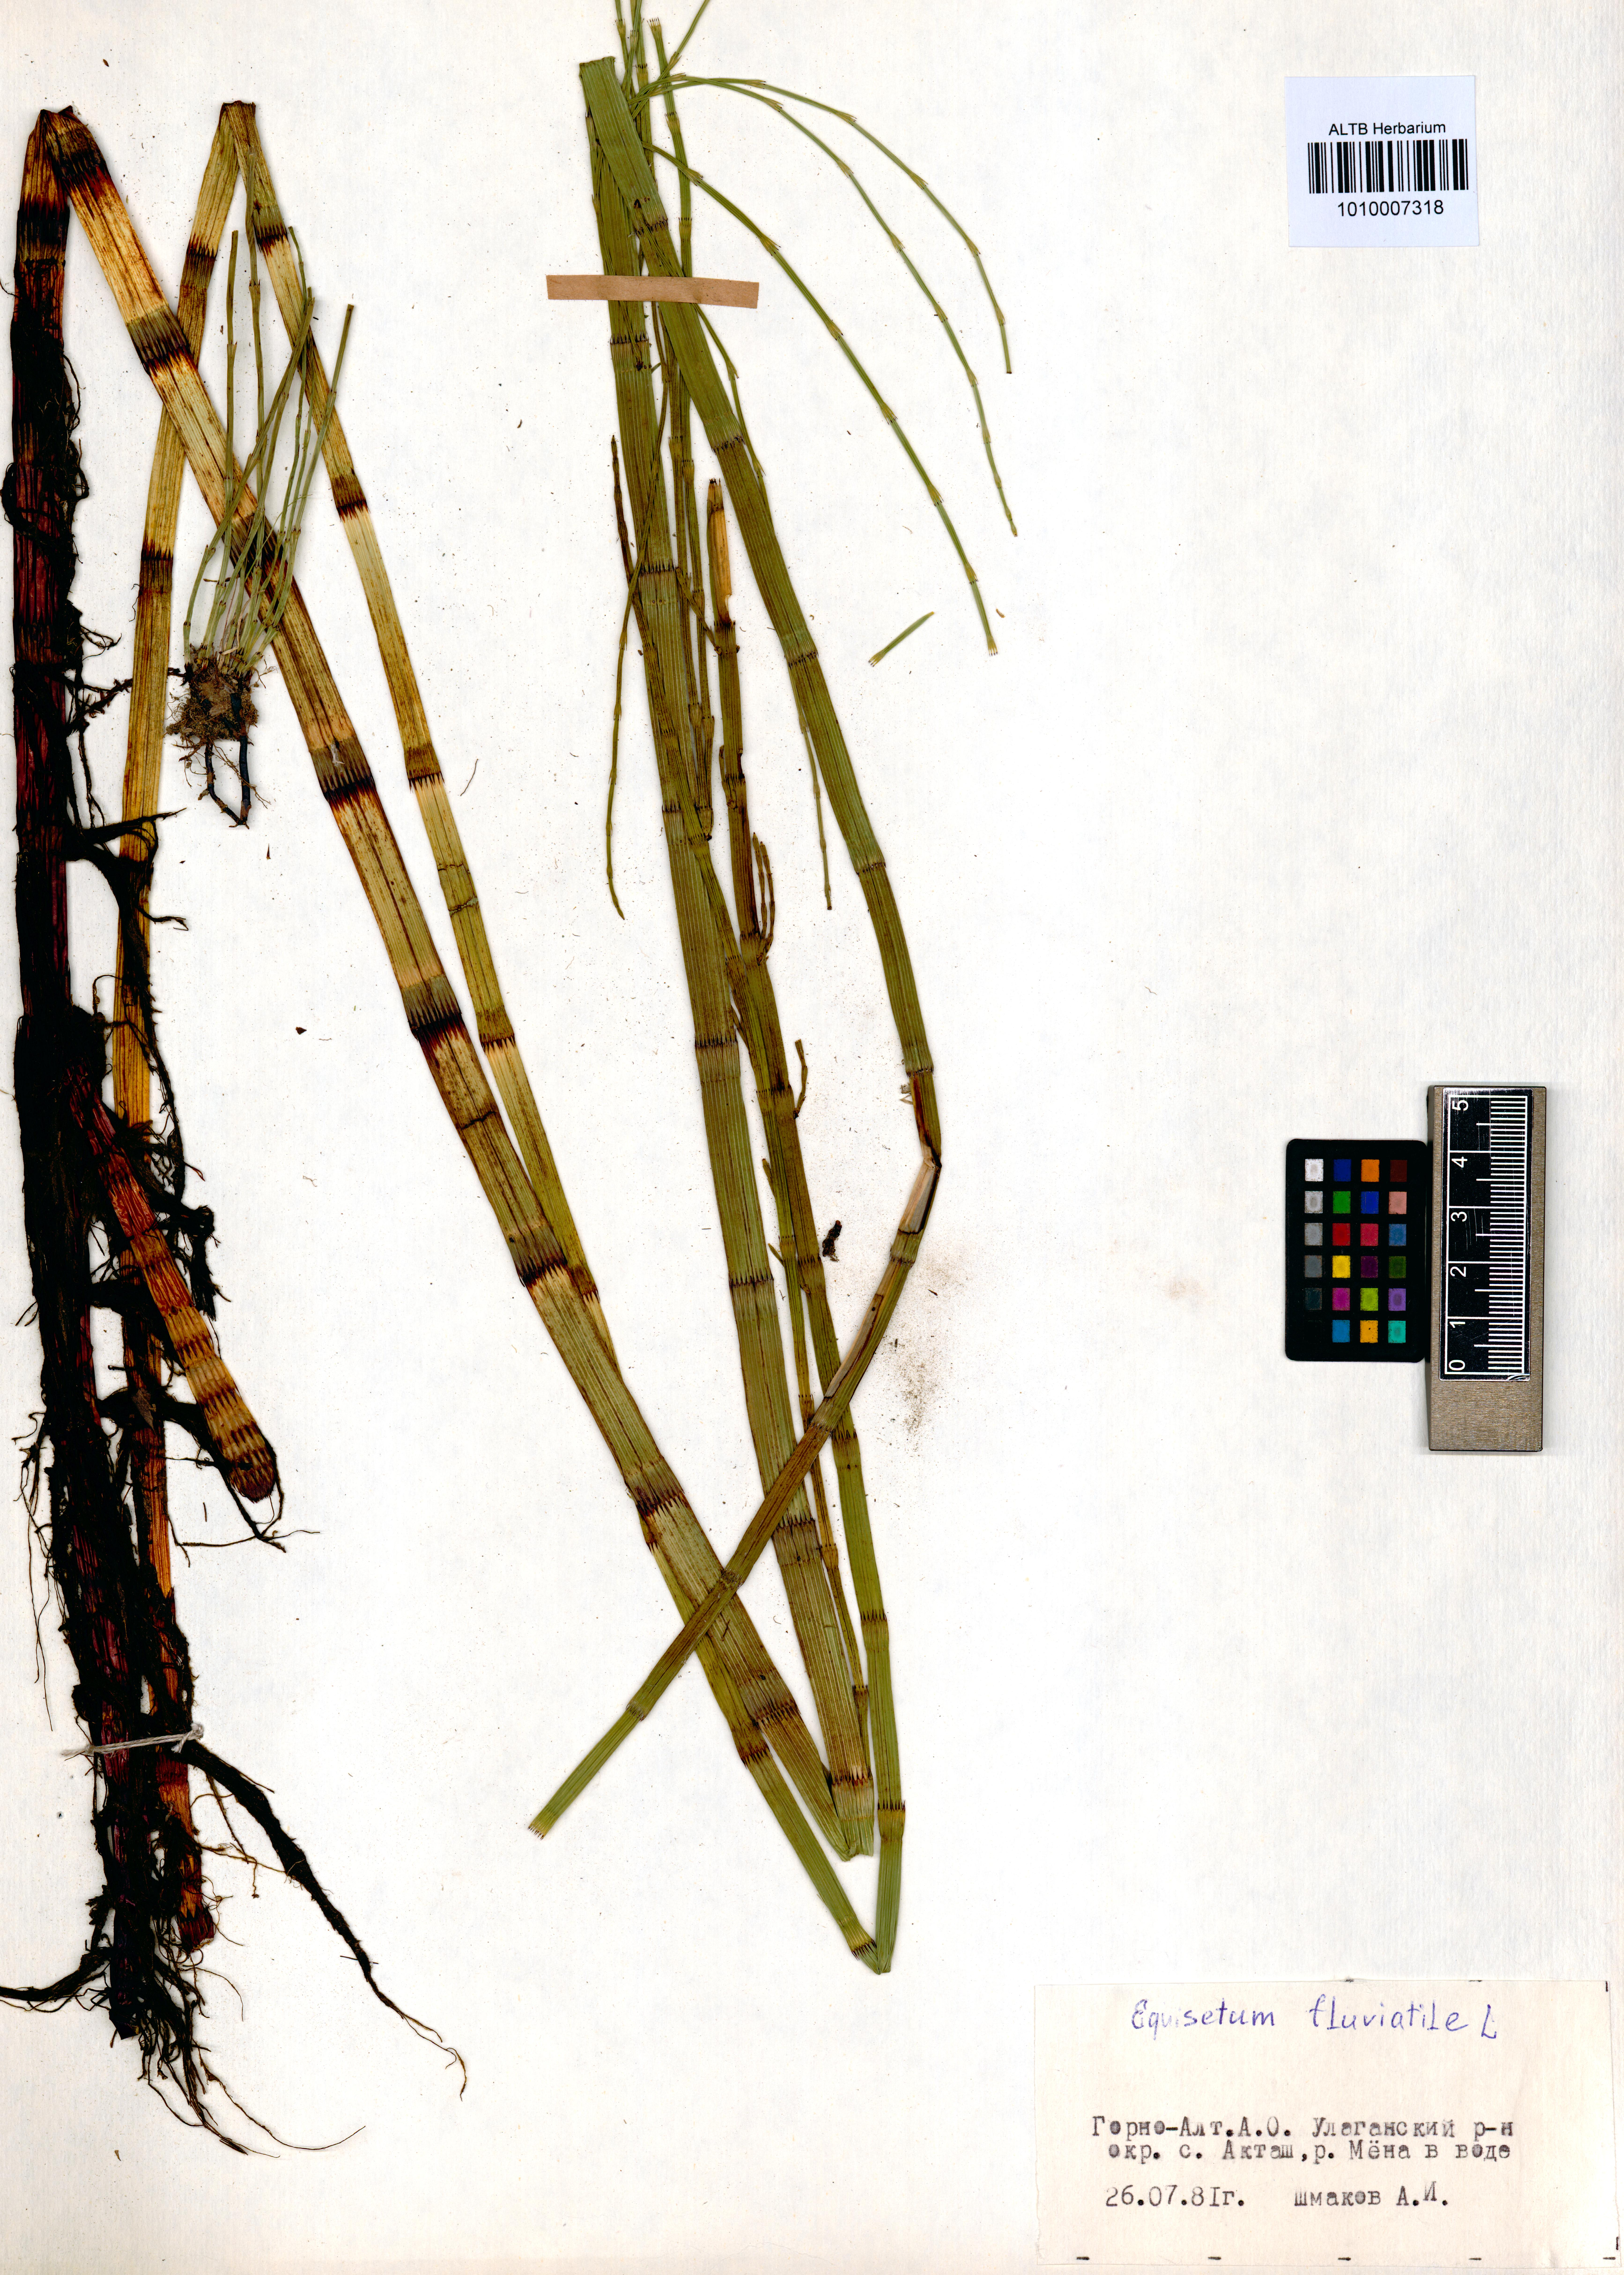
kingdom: Plantae
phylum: Tracheophyta
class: Polypodiopsida
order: Equisetales
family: Equisetaceae
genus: Equisetum
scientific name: Equisetum fluviatile
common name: Water horsetail
